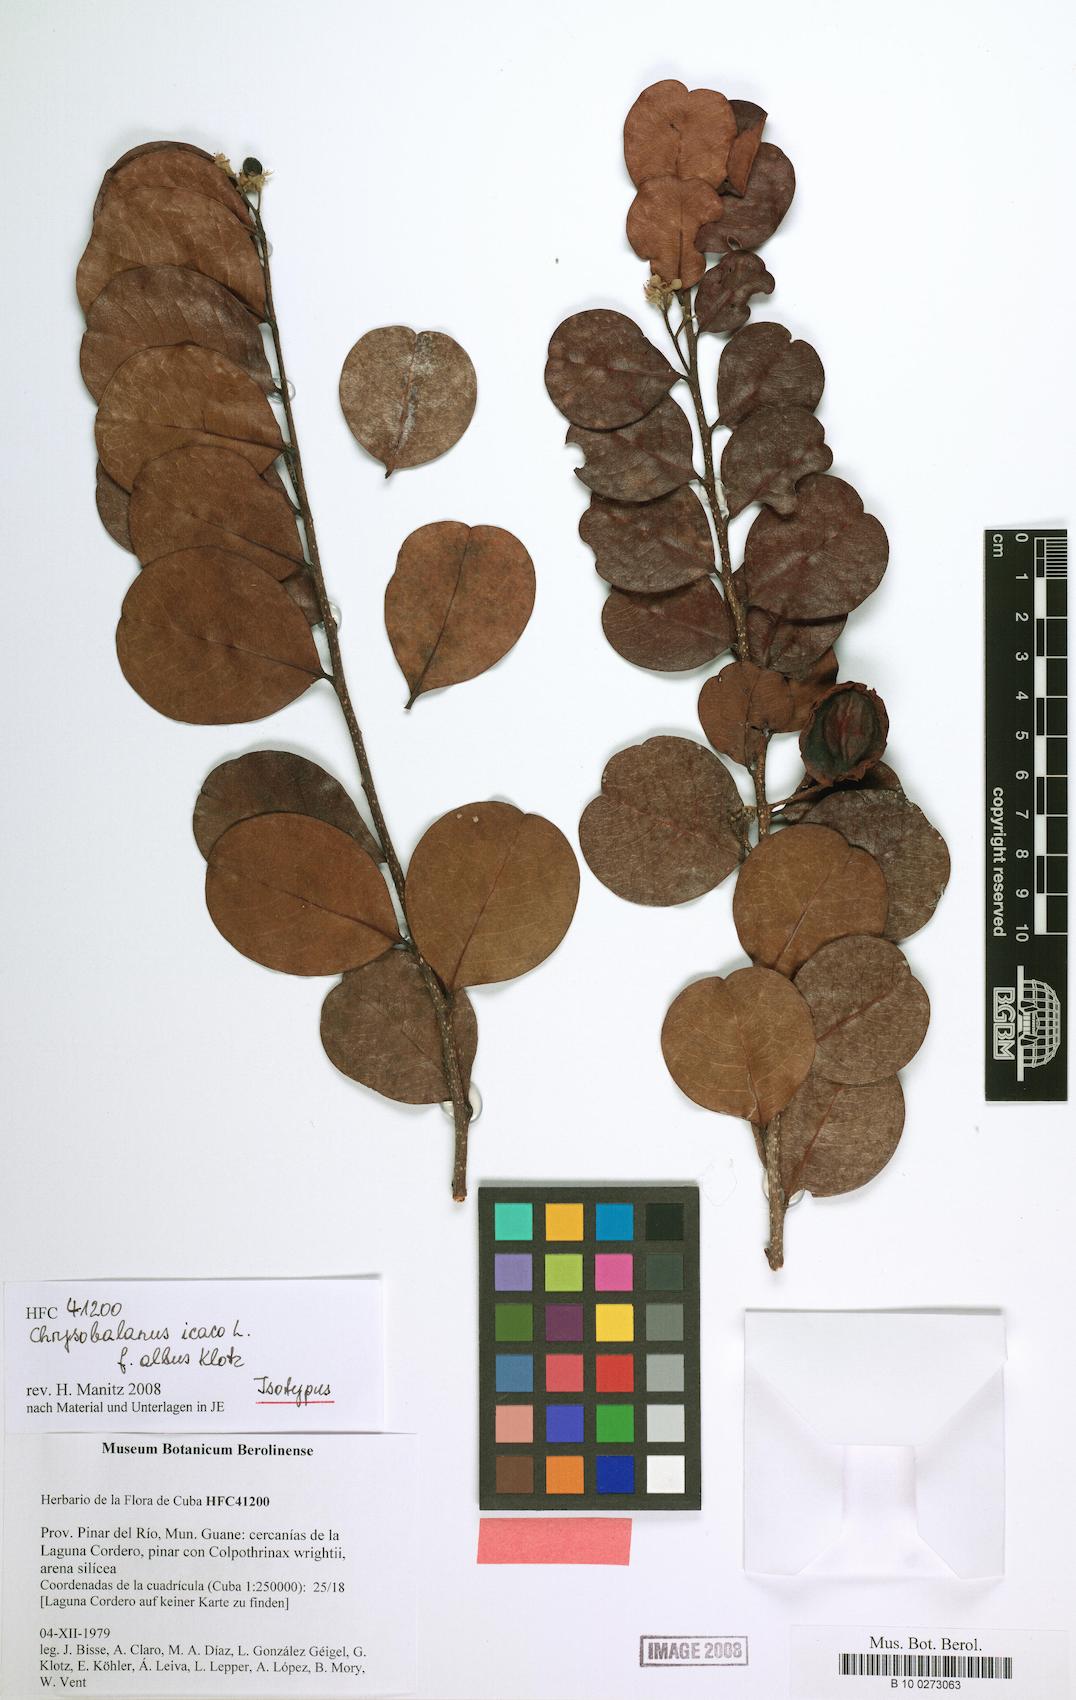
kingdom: Plantae
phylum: Tracheophyta
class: Magnoliopsida
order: Malpighiales
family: Chrysobalanaceae
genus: Chrysobalanus
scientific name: Chrysobalanus icaco
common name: Coco plum
